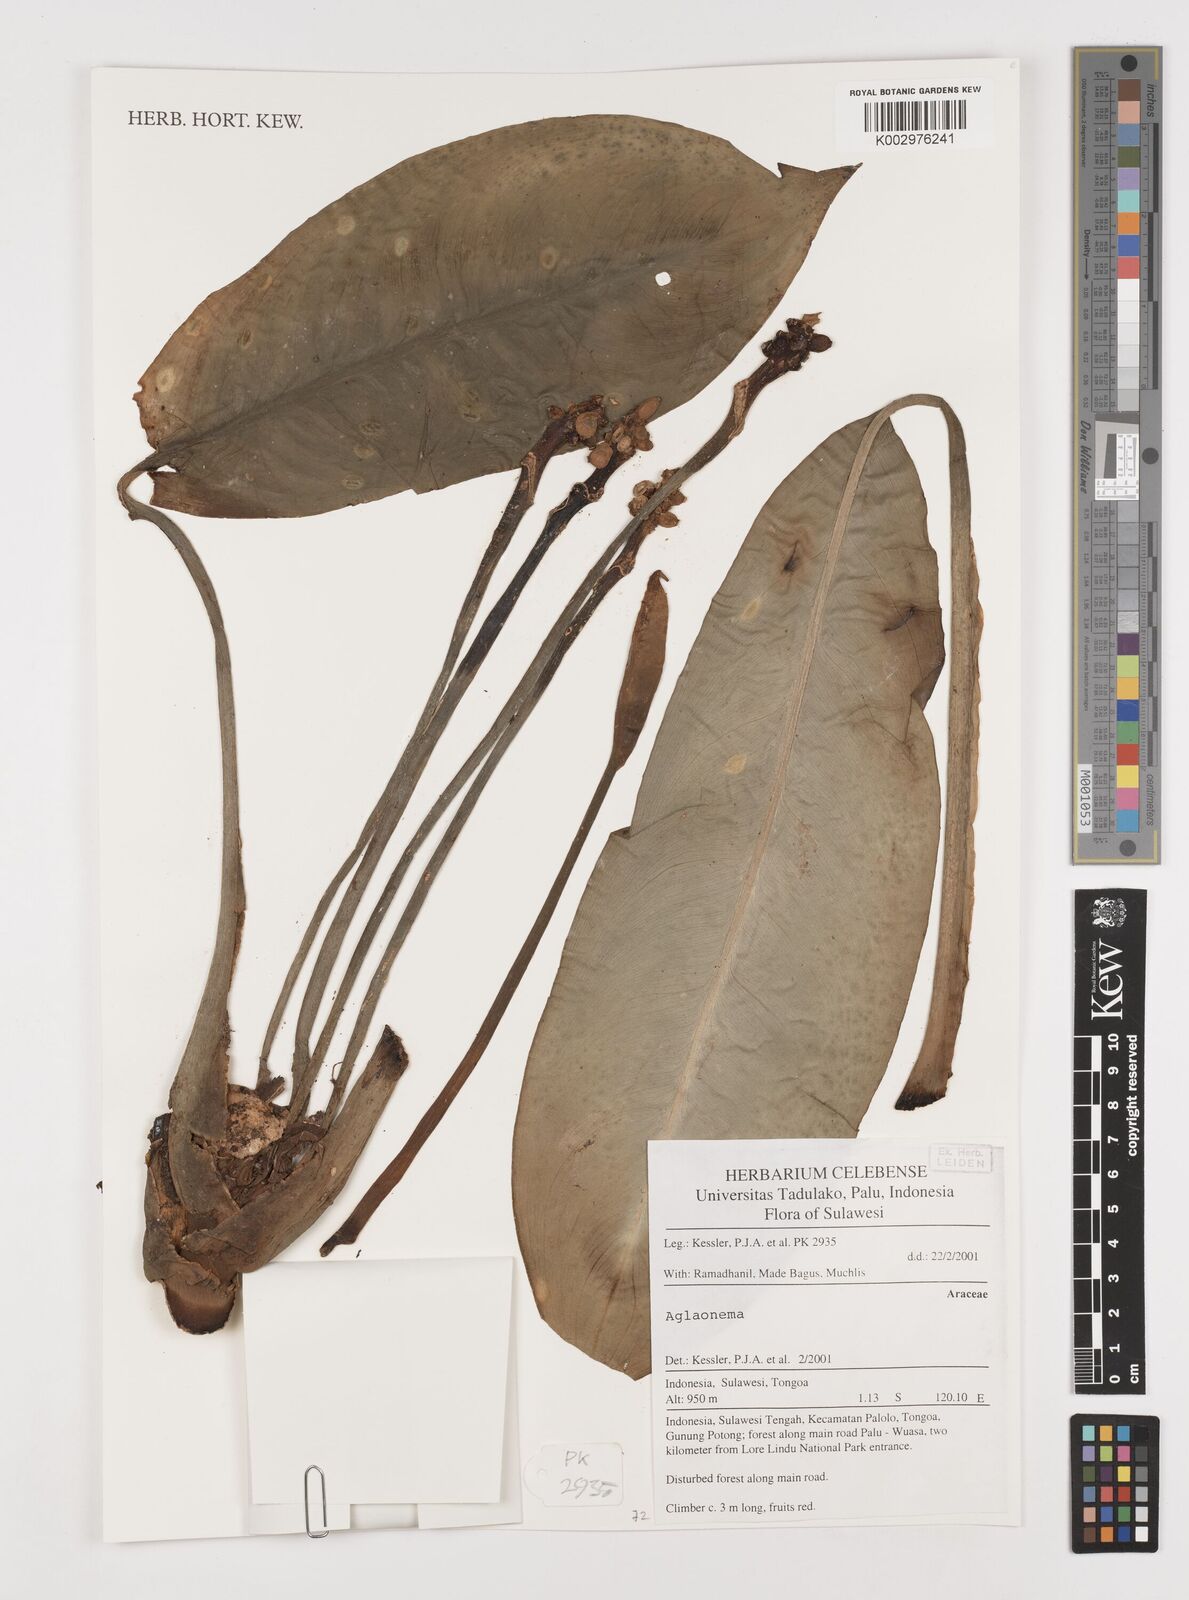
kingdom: Plantae
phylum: Tracheophyta
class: Liliopsida
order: Alismatales
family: Araceae
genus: Aglaonema
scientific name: Aglaonema
